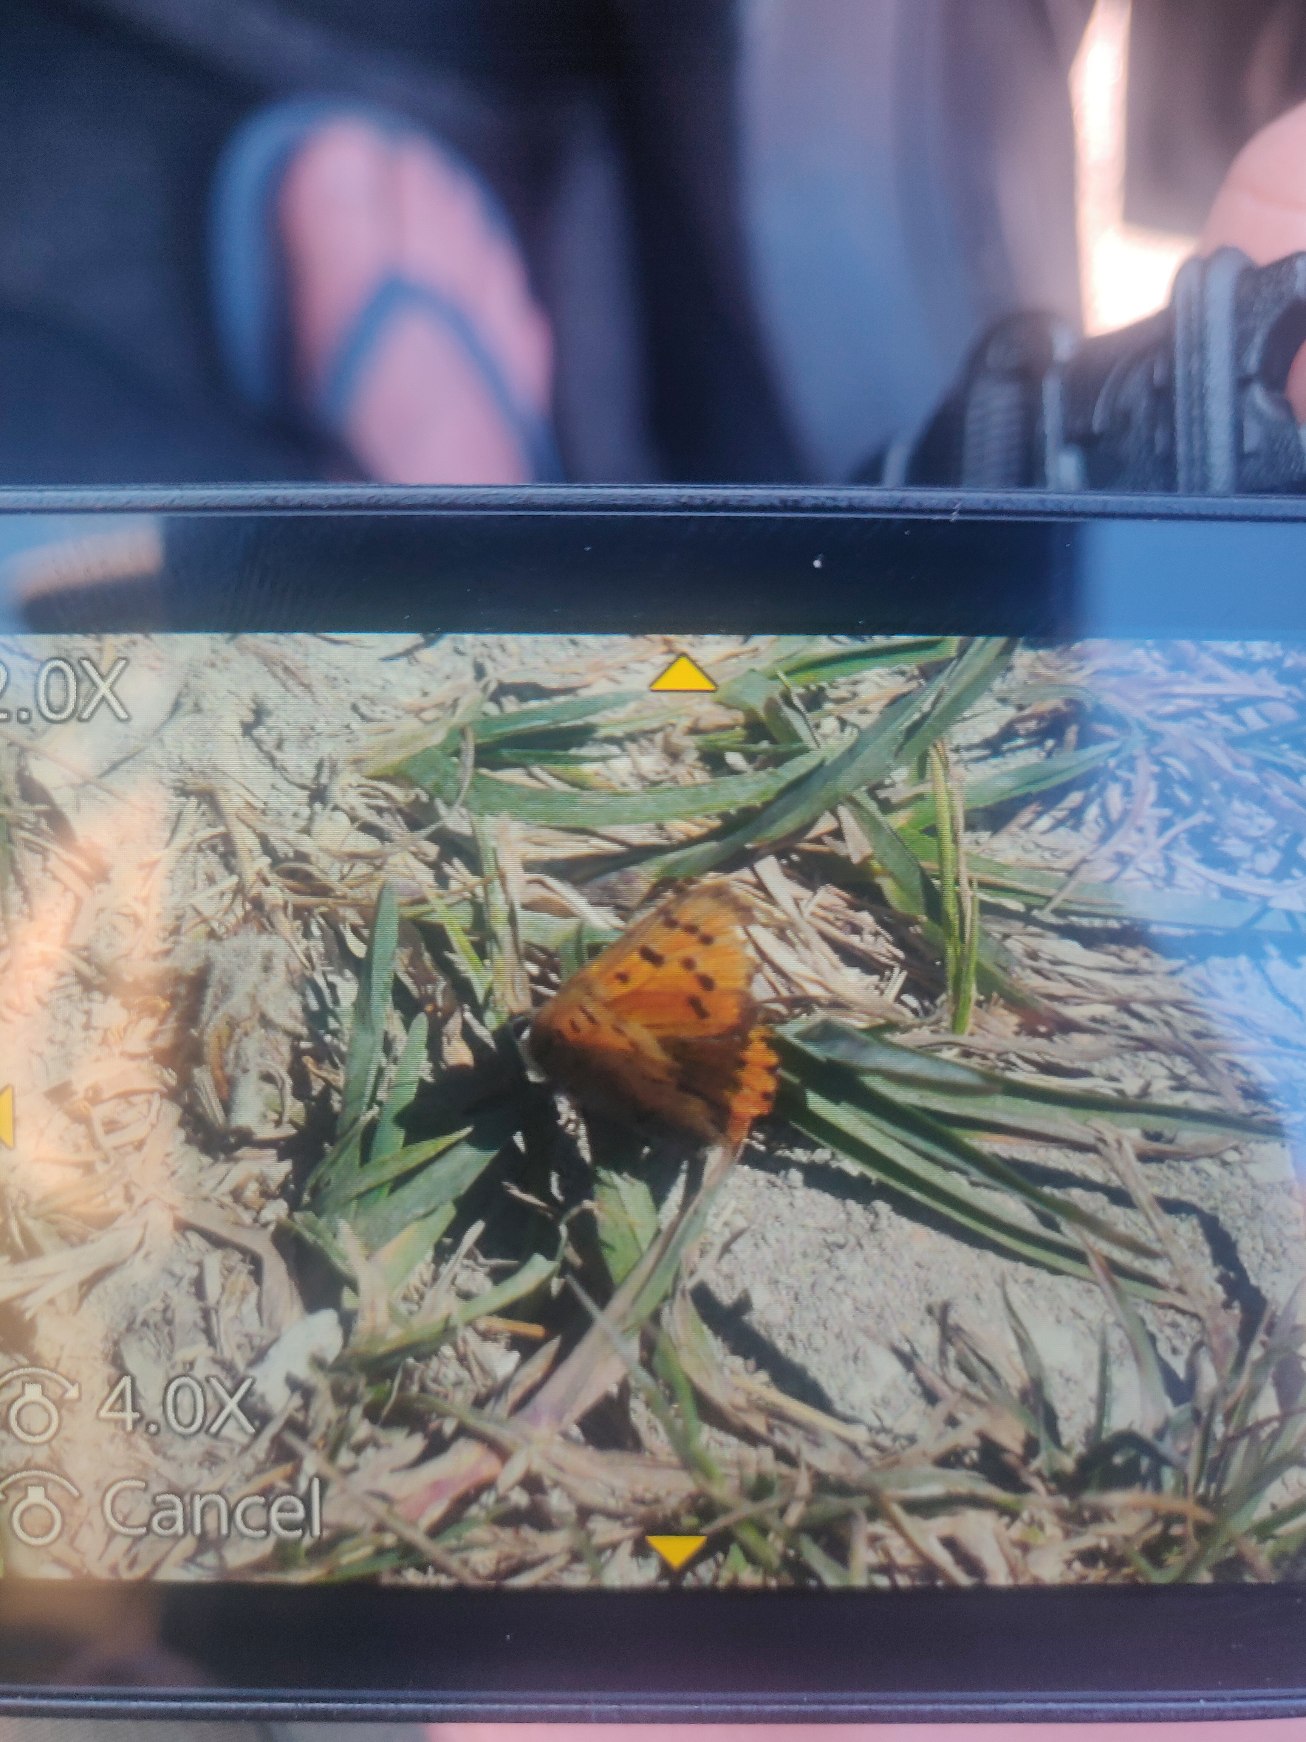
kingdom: Animalia
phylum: Arthropoda
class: Insecta
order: Lepidoptera
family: Lycaenidae
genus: Lycaena
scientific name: Lycaena phlaeas
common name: Lille ildfugl
